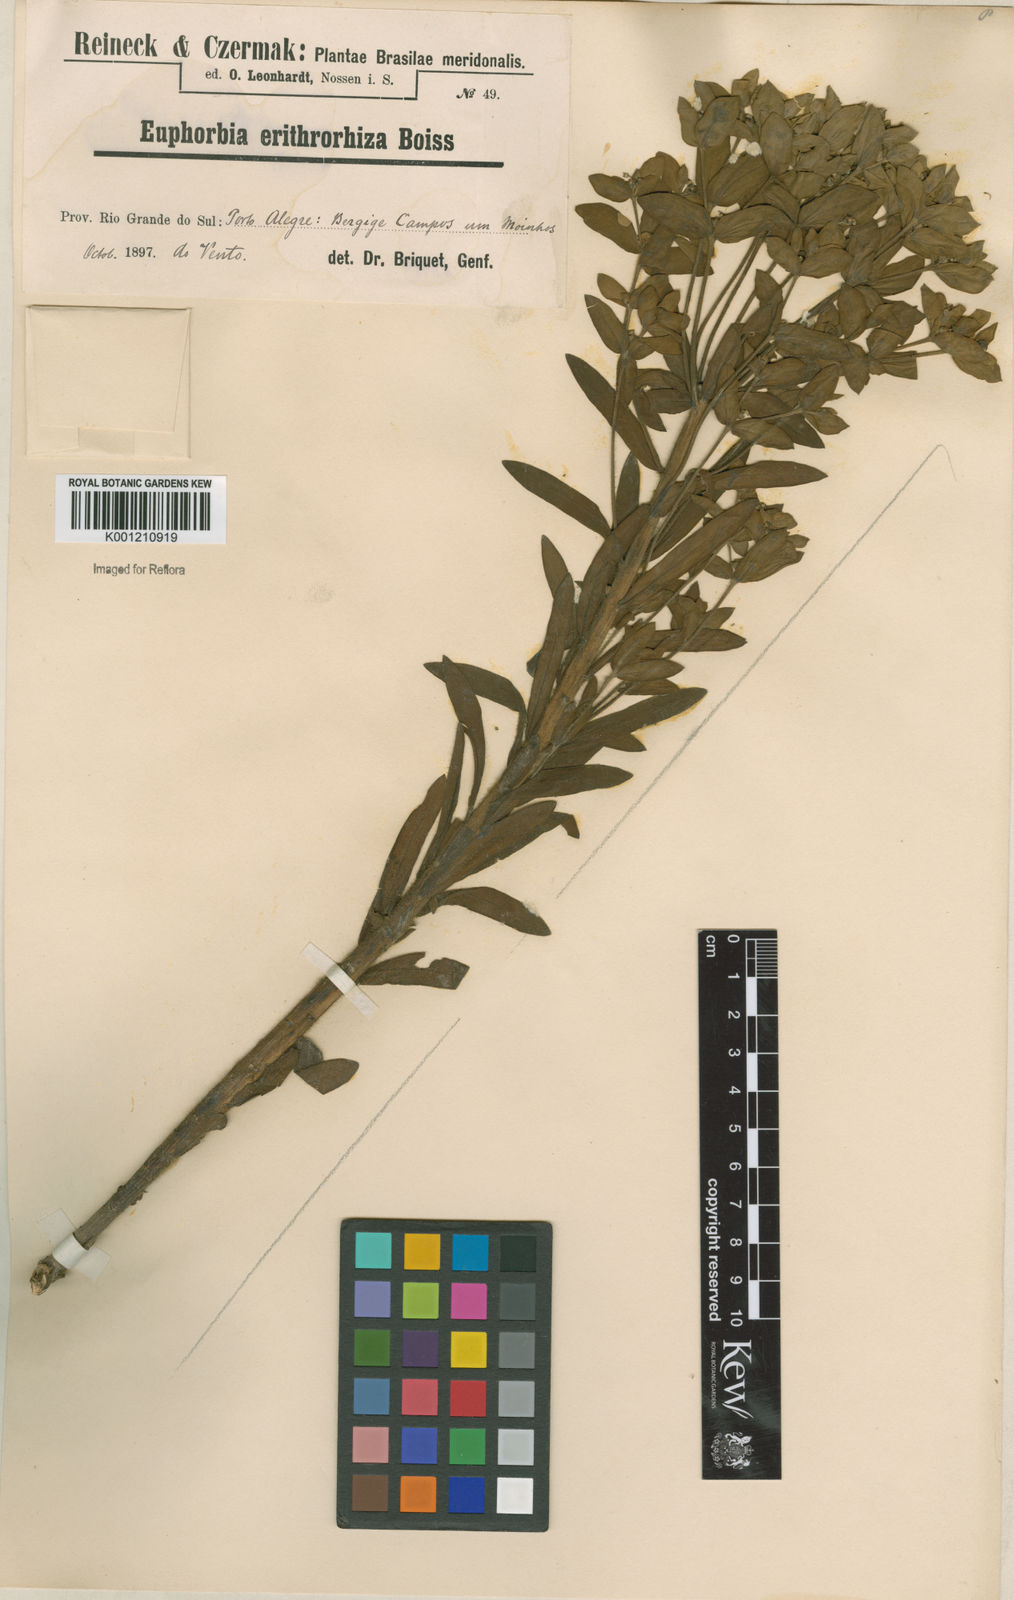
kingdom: Plantae
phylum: Tracheophyta
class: Magnoliopsida
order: Malpighiales
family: Euphorbiaceae
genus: Euphorbia
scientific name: Euphorbia papillosa
